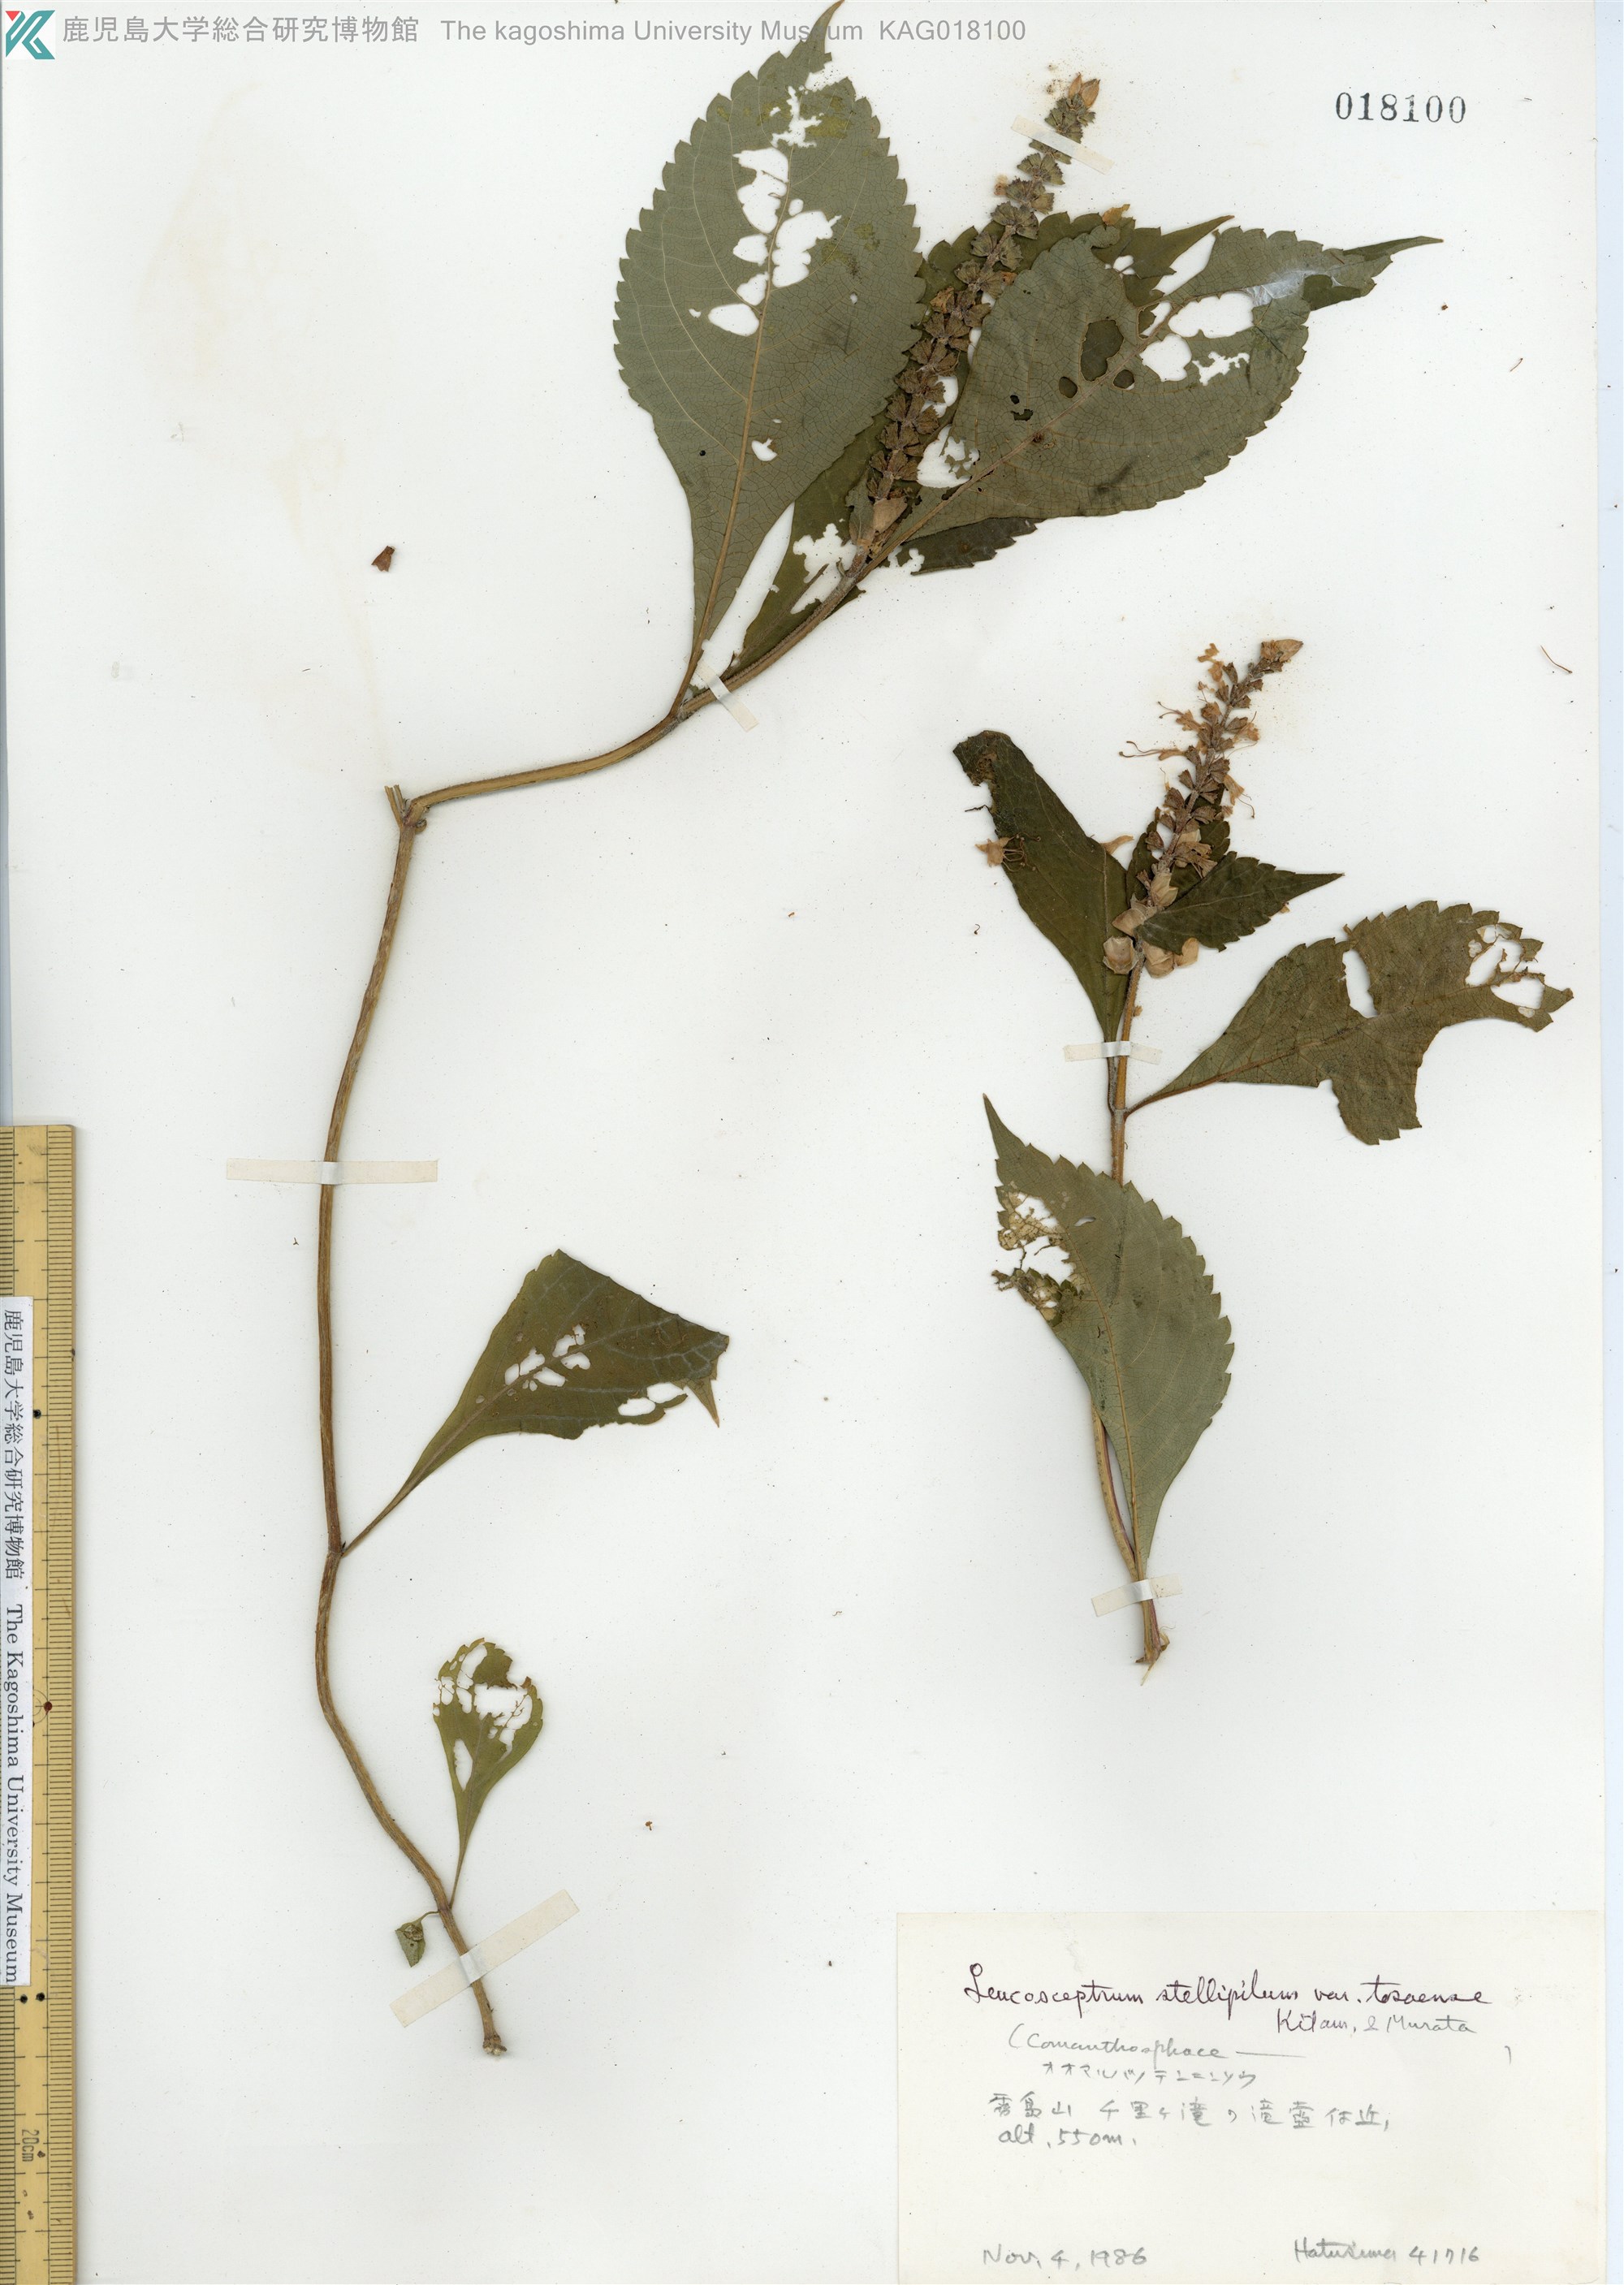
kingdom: Plantae
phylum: Tracheophyta
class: Magnoliopsida
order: Lamiales
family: Lamiaceae
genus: Comanthosphace
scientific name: Comanthosphace japonica
